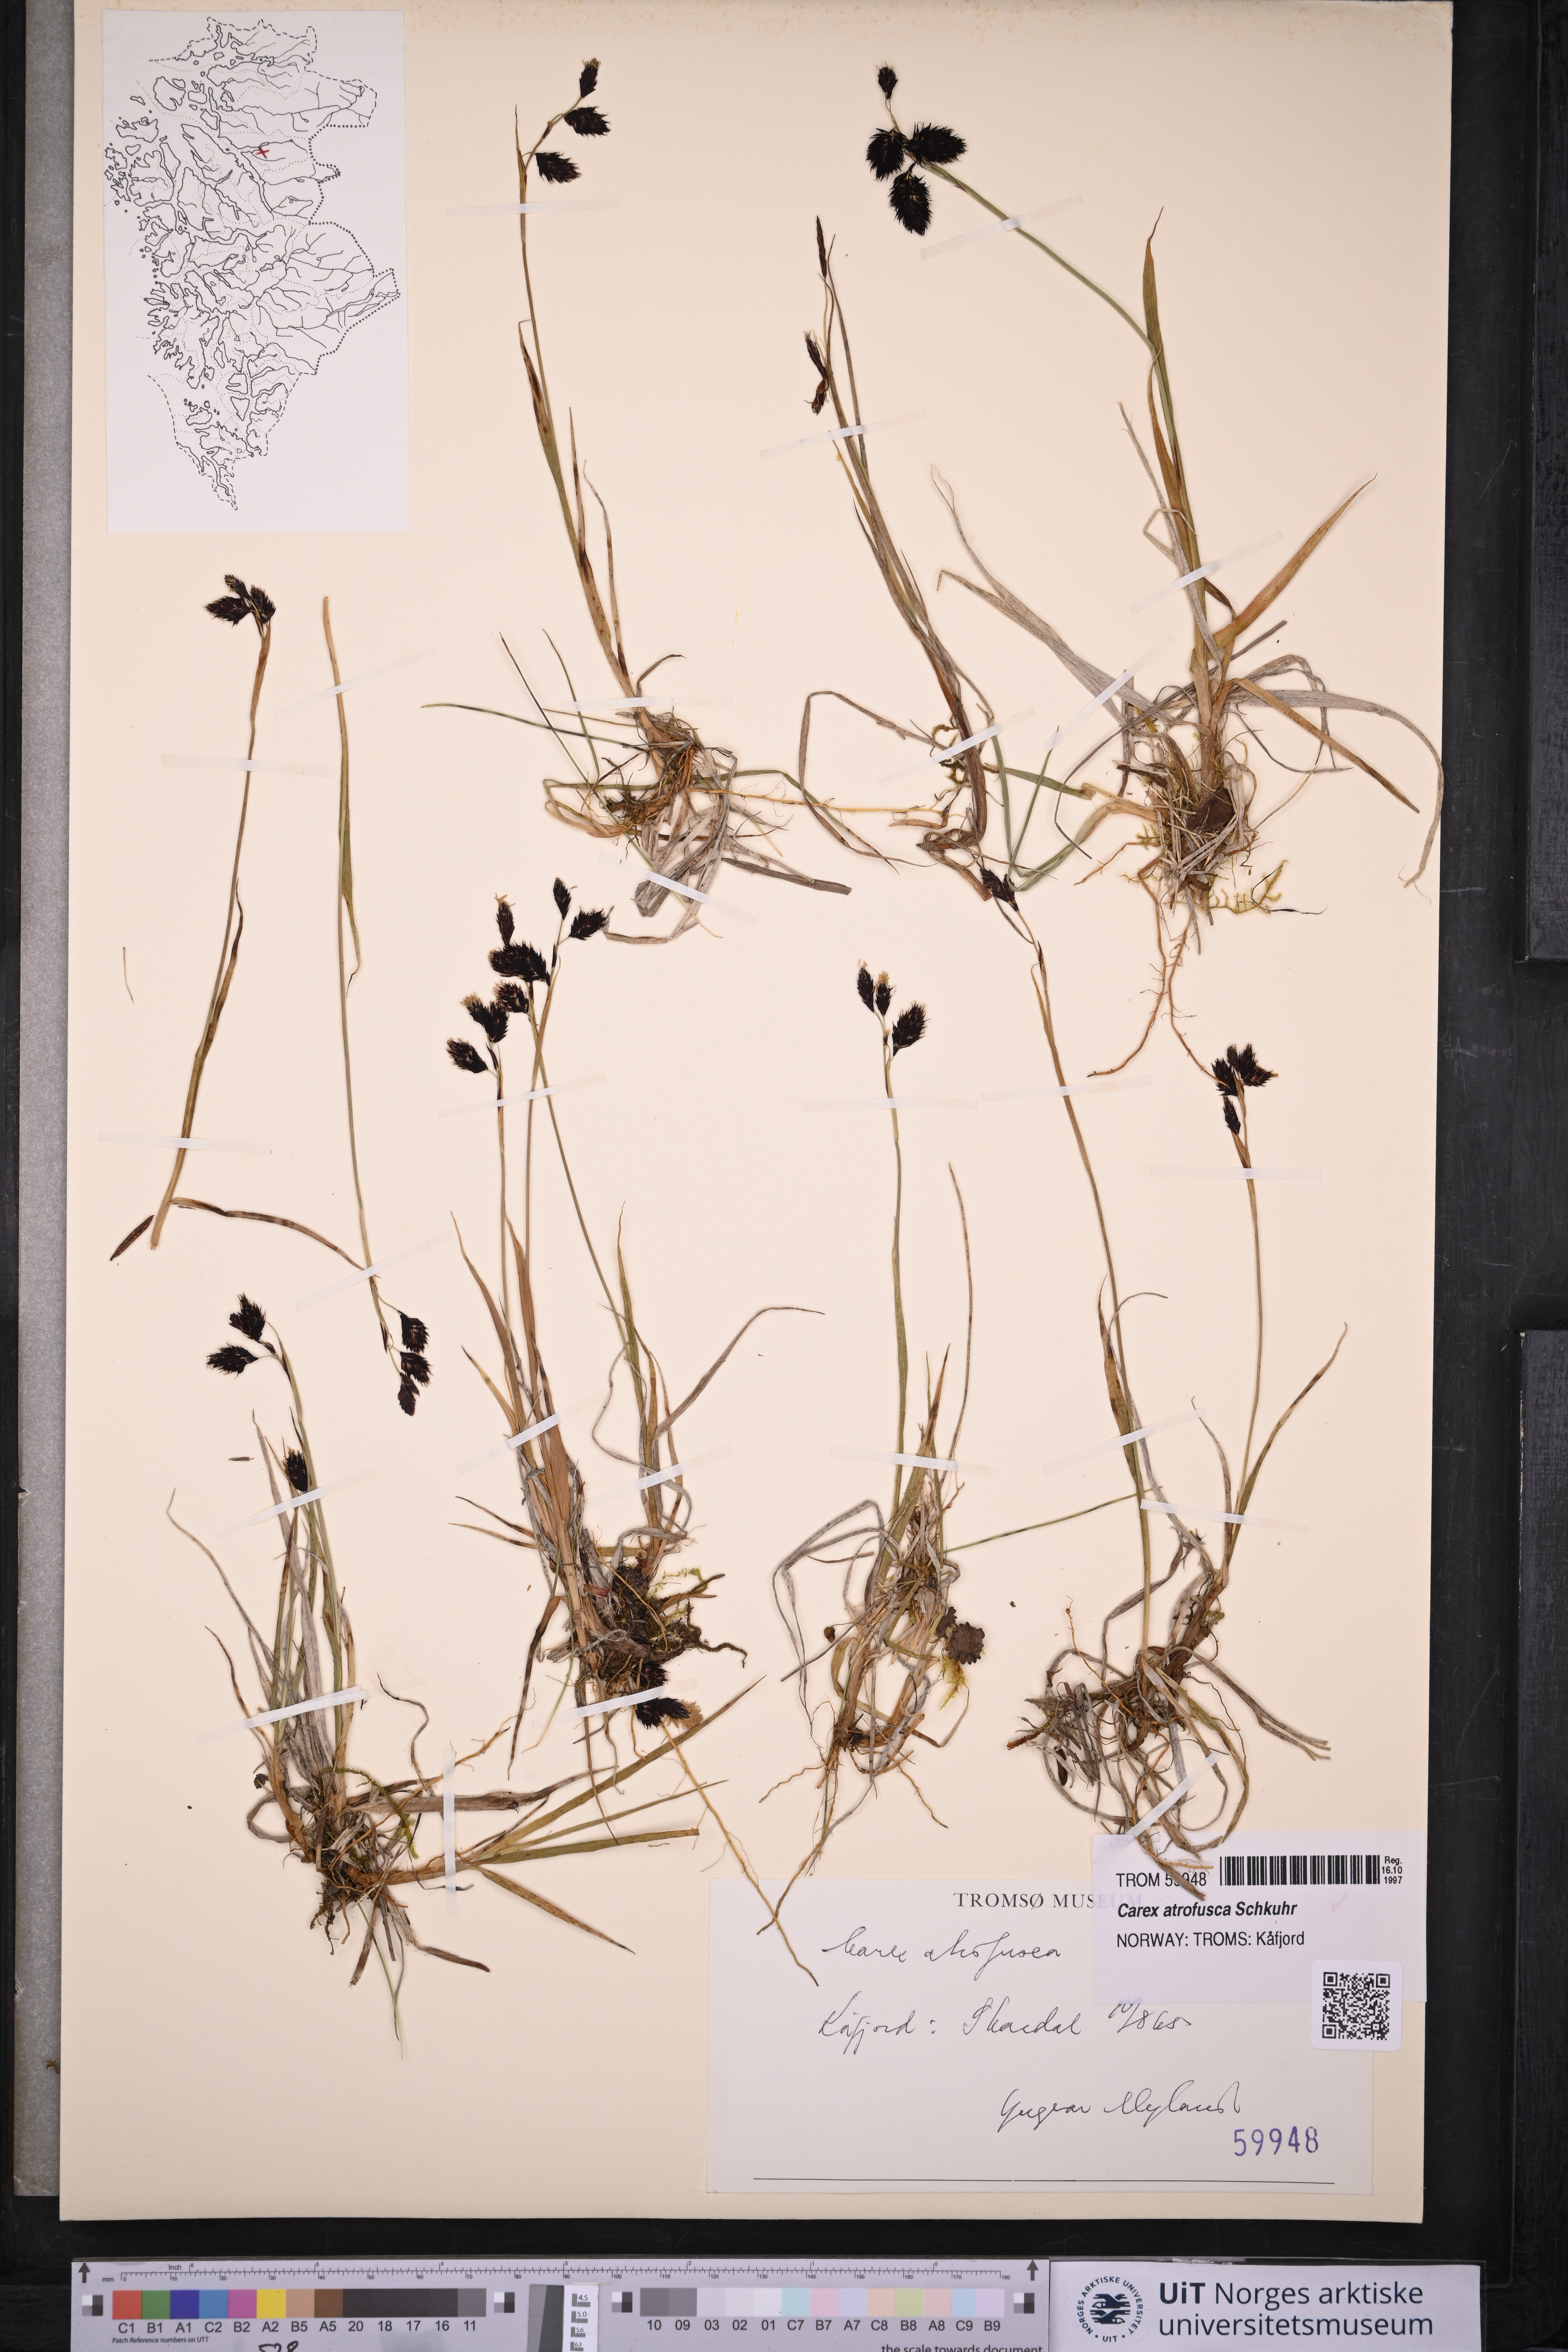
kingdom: Plantae
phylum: Tracheophyta
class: Liliopsida
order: Poales
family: Cyperaceae
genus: Carex
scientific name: Carex atrofusca
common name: Scorched alpine-sedge
